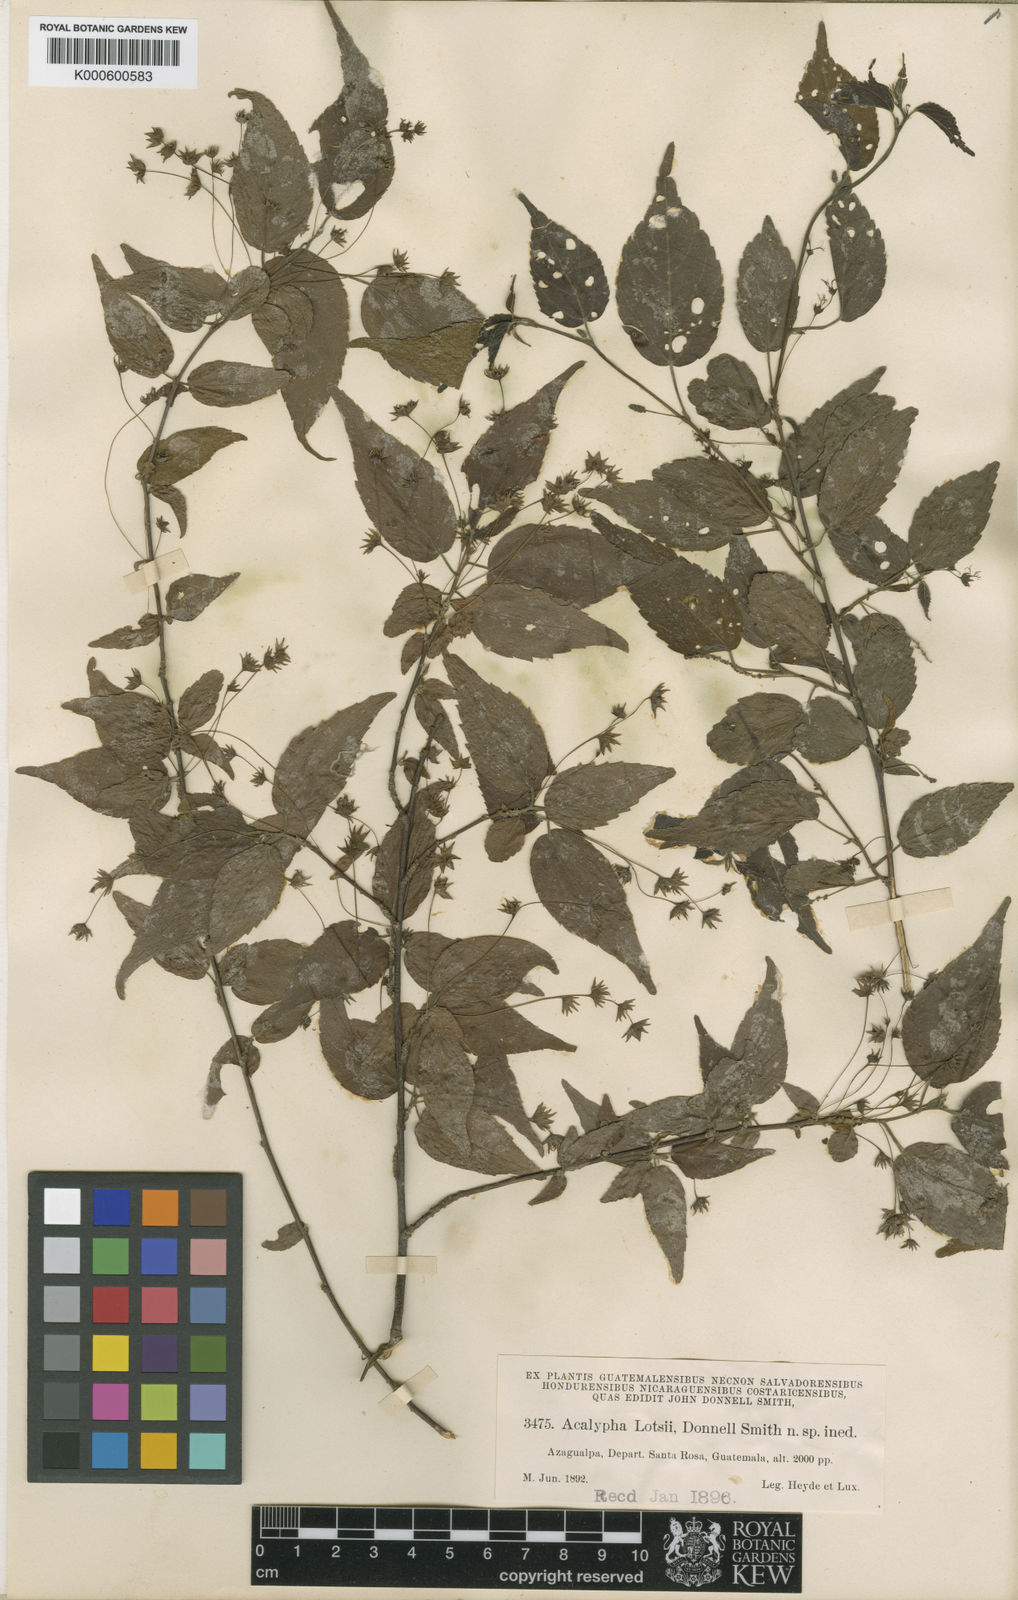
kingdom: Plantae
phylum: Tracheophyta
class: Magnoliopsida
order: Malpighiales
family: Euphorbiaceae
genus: Acalypha
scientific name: Acalypha
